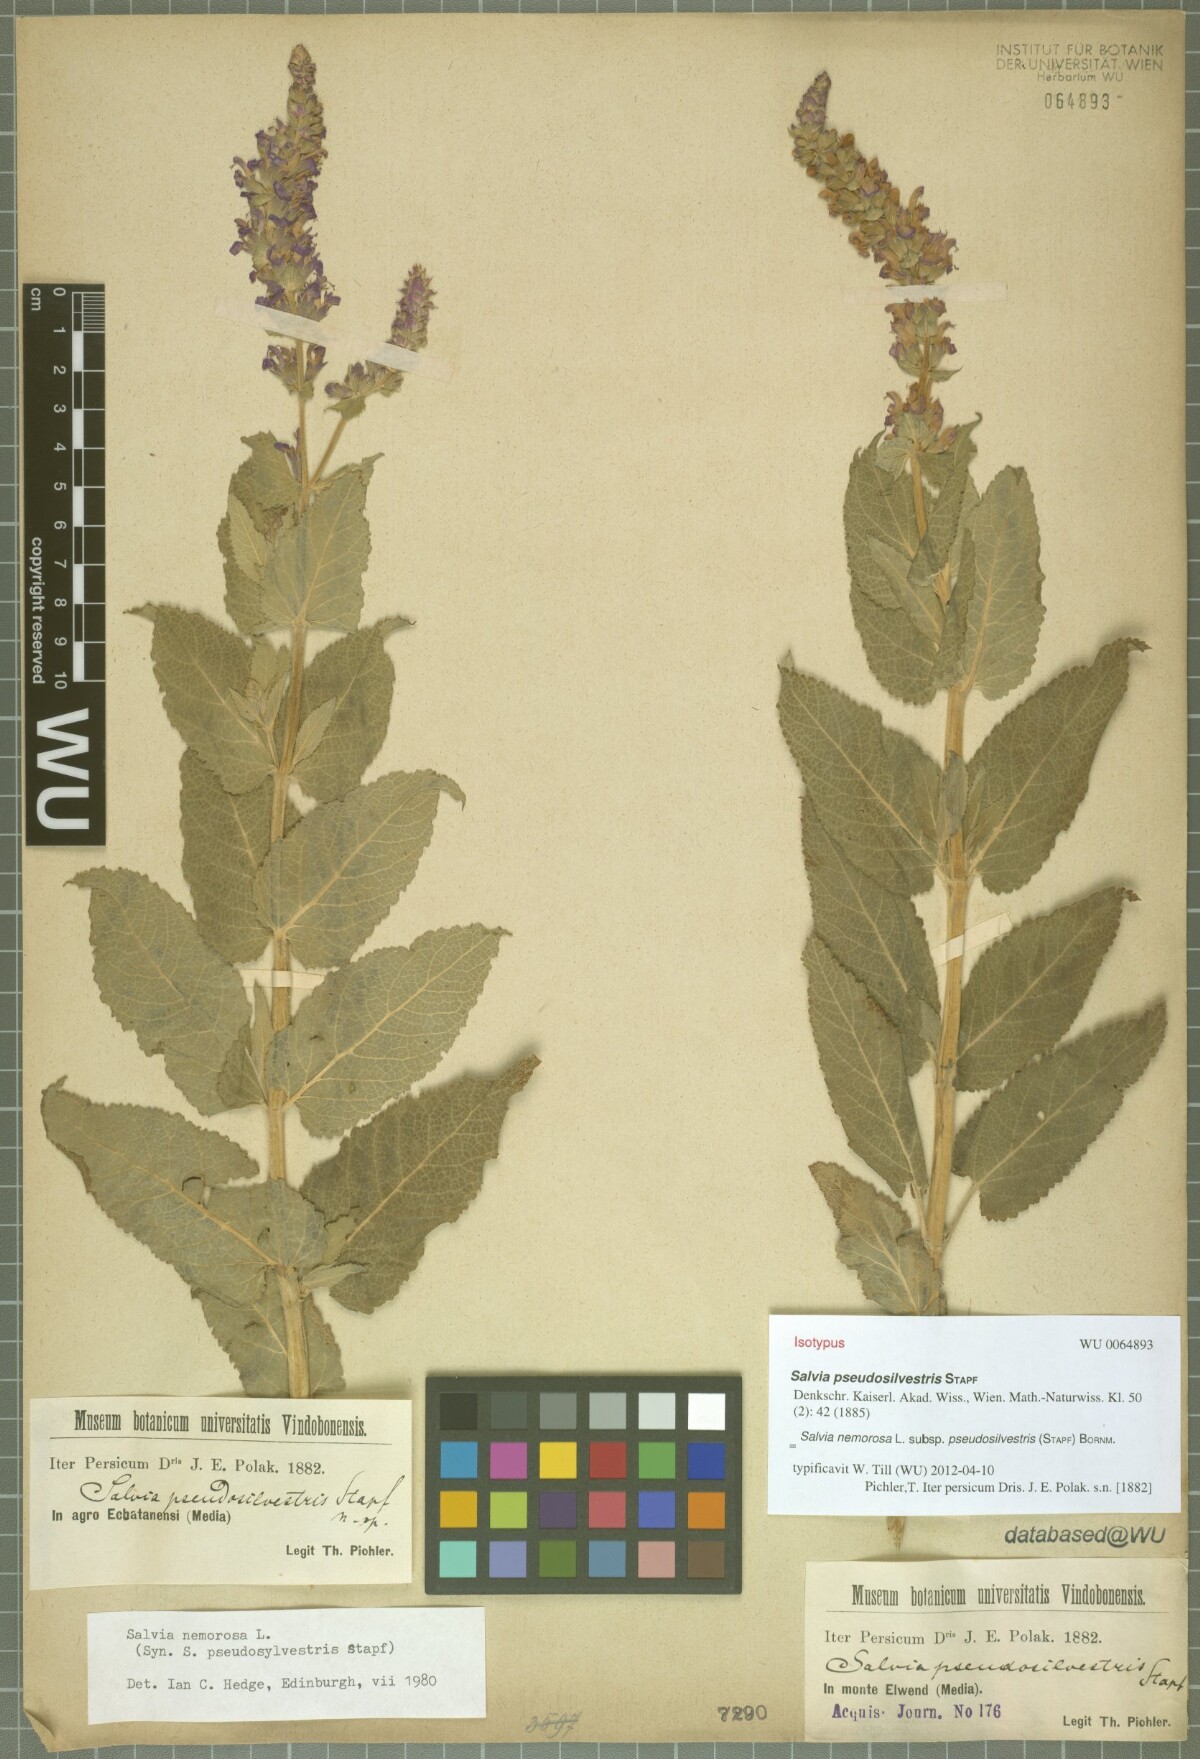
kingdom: Plantae
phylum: Tracheophyta
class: Magnoliopsida
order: Lamiales
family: Lamiaceae
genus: Salvia
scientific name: Salvia nemorosa
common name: Balkan clary
